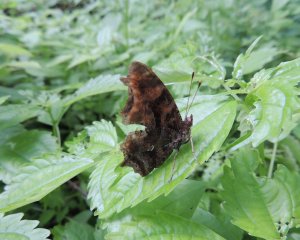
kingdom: Animalia
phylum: Arthropoda
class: Insecta
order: Lepidoptera
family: Nymphalidae
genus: Polygonia
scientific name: Polygonia comma
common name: Eastern Comma
